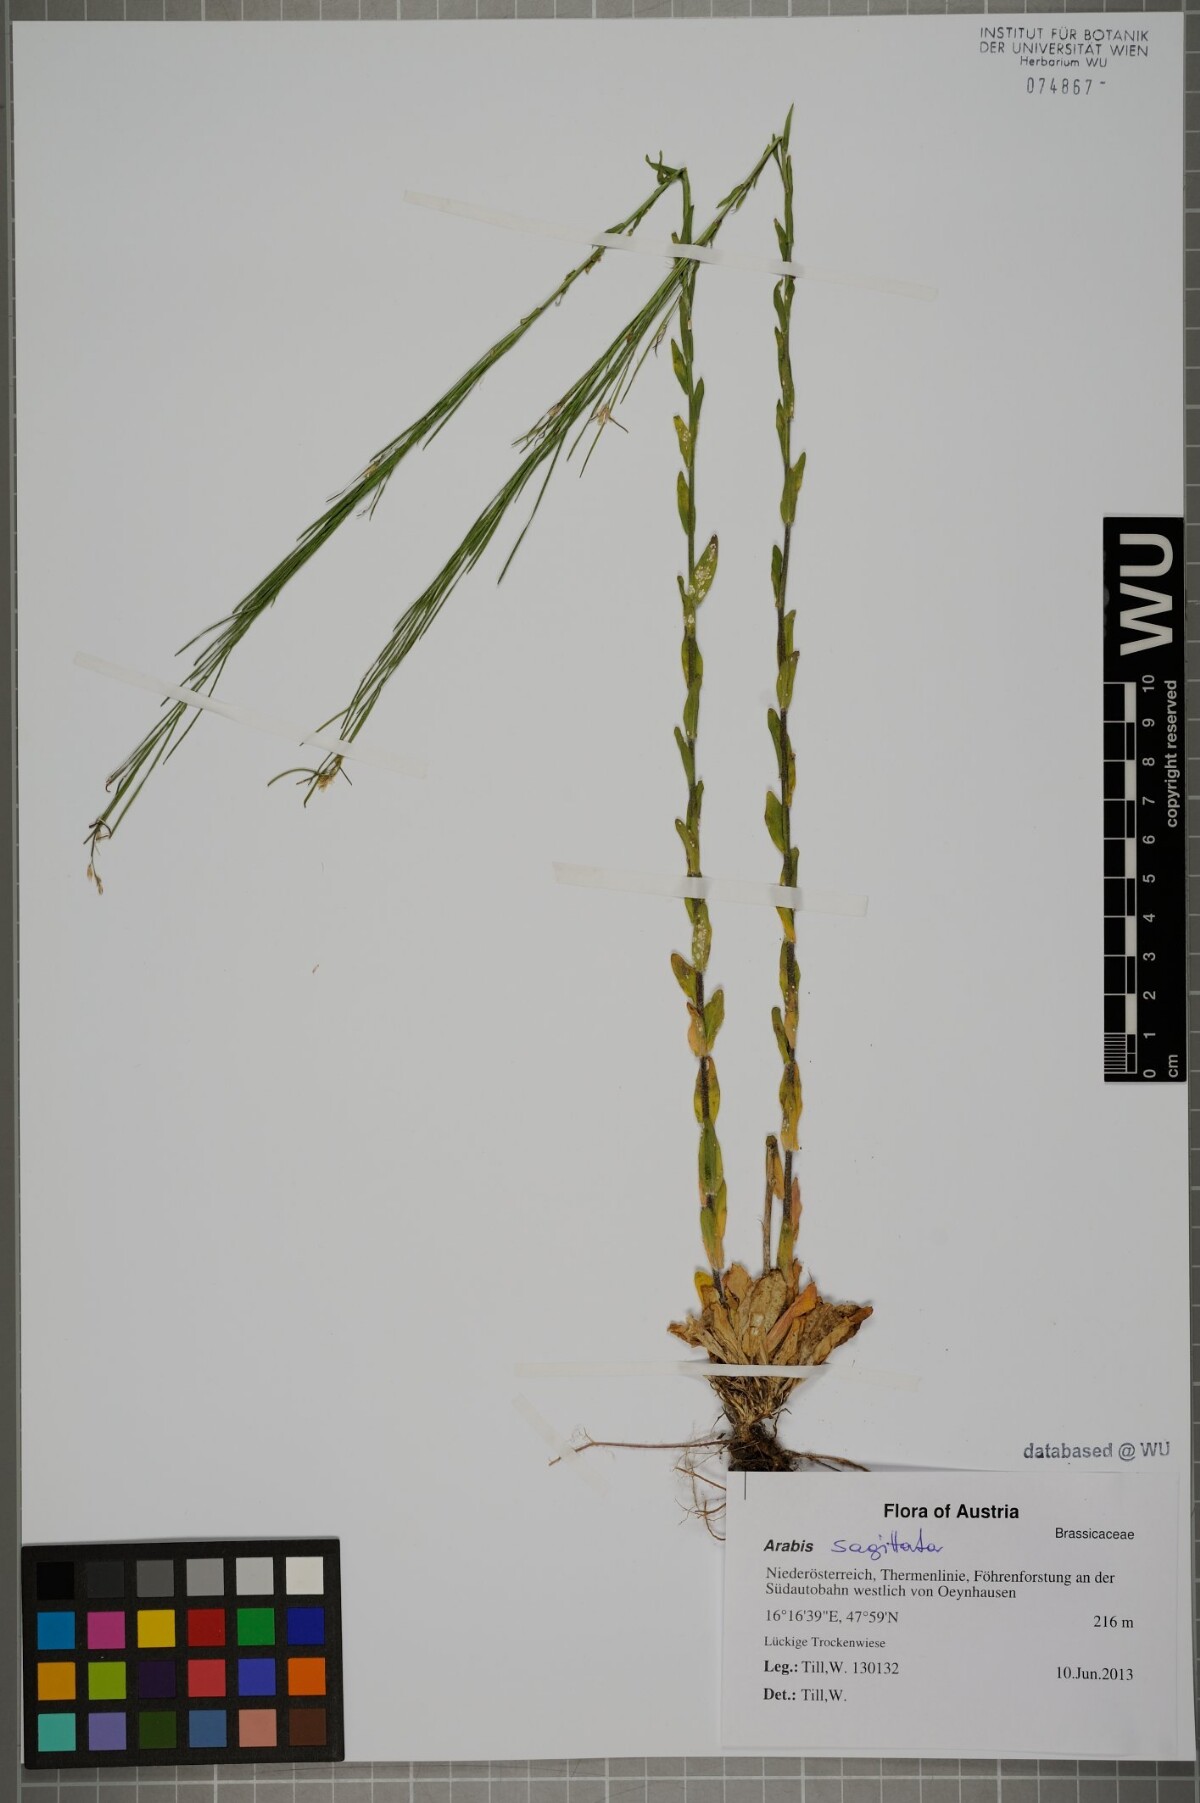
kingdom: Plantae
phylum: Tracheophyta
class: Magnoliopsida
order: Brassicales
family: Brassicaceae
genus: Arabis
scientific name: Arabis sagittata
